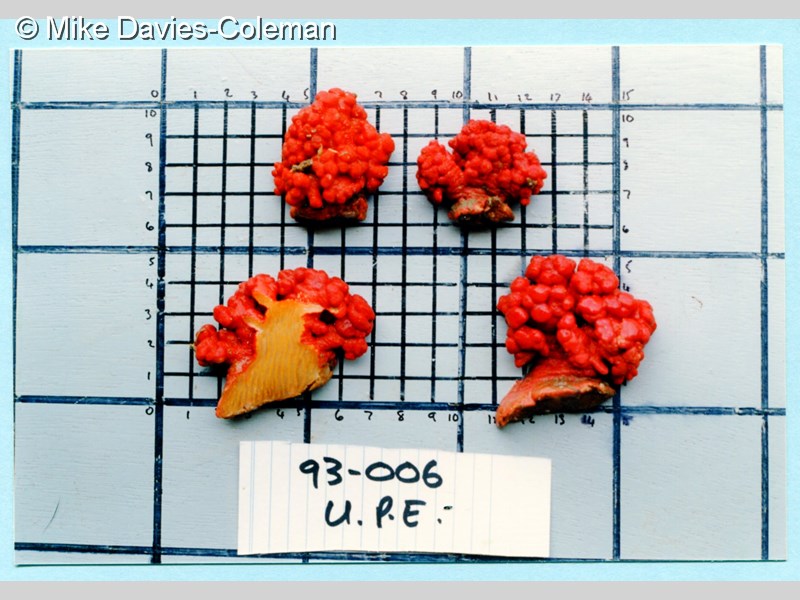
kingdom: Animalia
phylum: Cnidaria
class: Anthozoa
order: Malacalcyonacea
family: Capnellidae
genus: Eunephthya
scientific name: Eunephthya thyrsoidea
